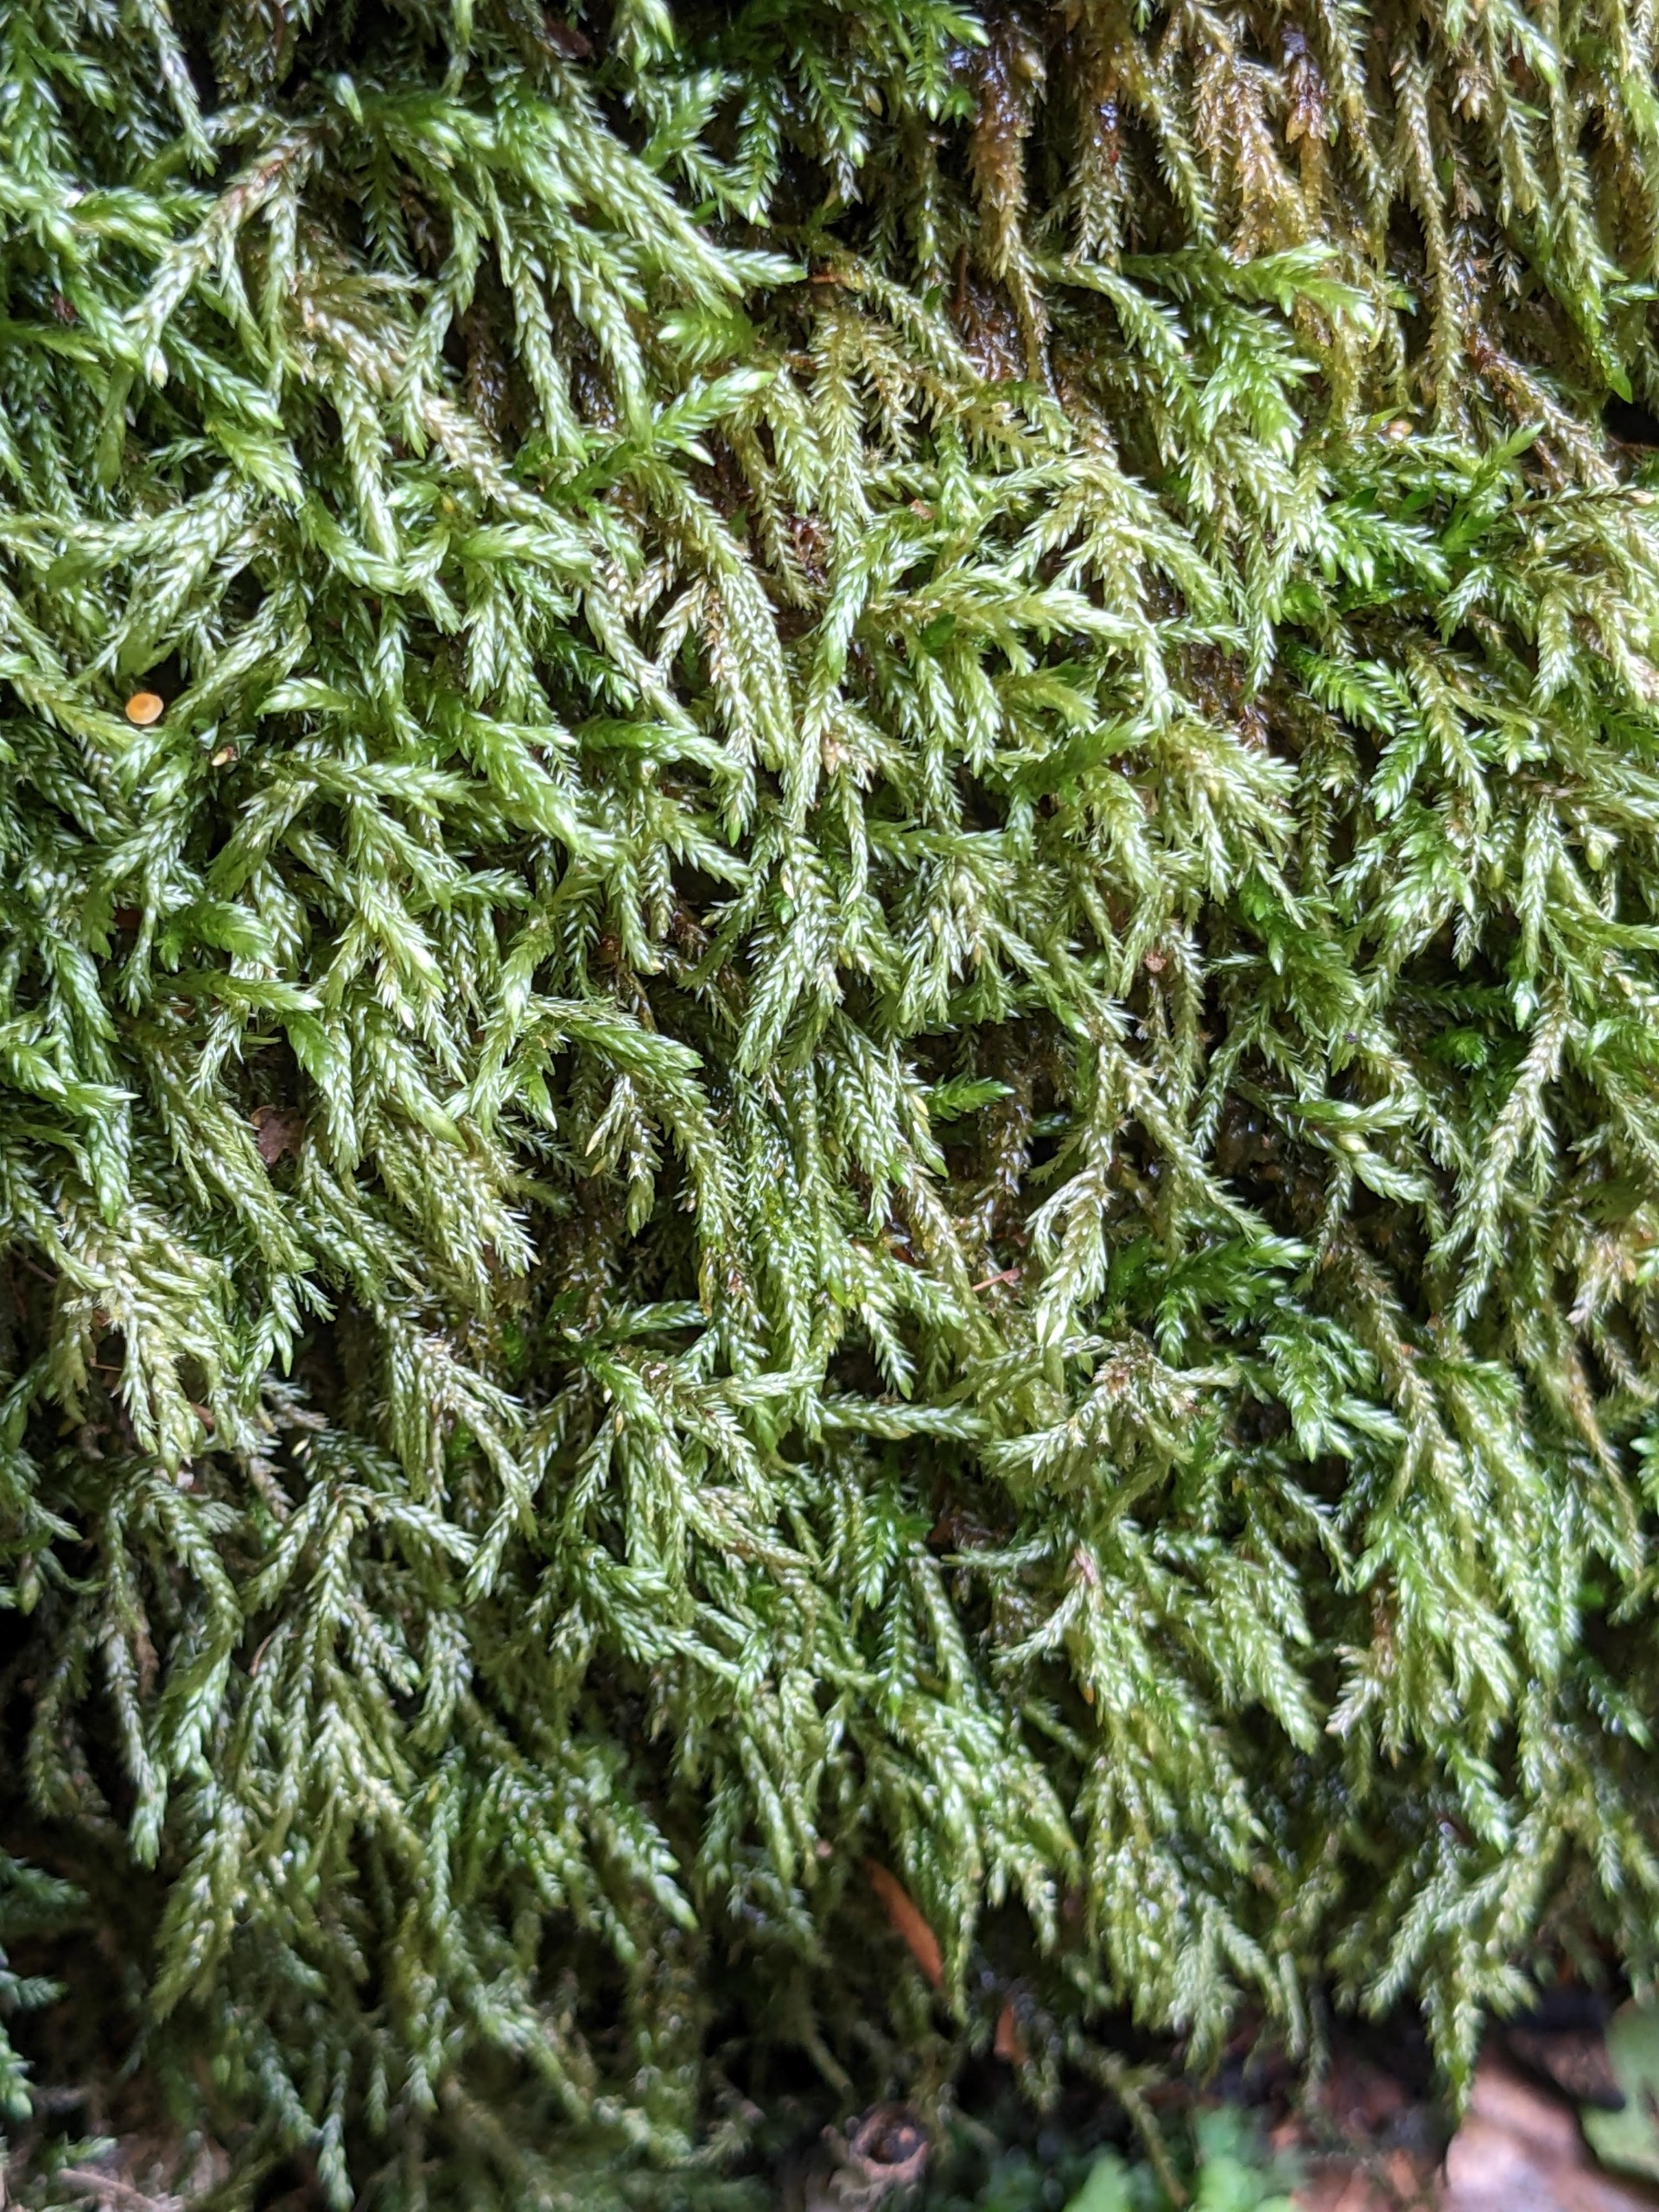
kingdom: Plantae
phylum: Bryophyta
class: Bryopsida
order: Hypnales
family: Lembophyllaceae
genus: Isothecium
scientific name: Isothecium alopecuroides
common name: Stor stammemos
